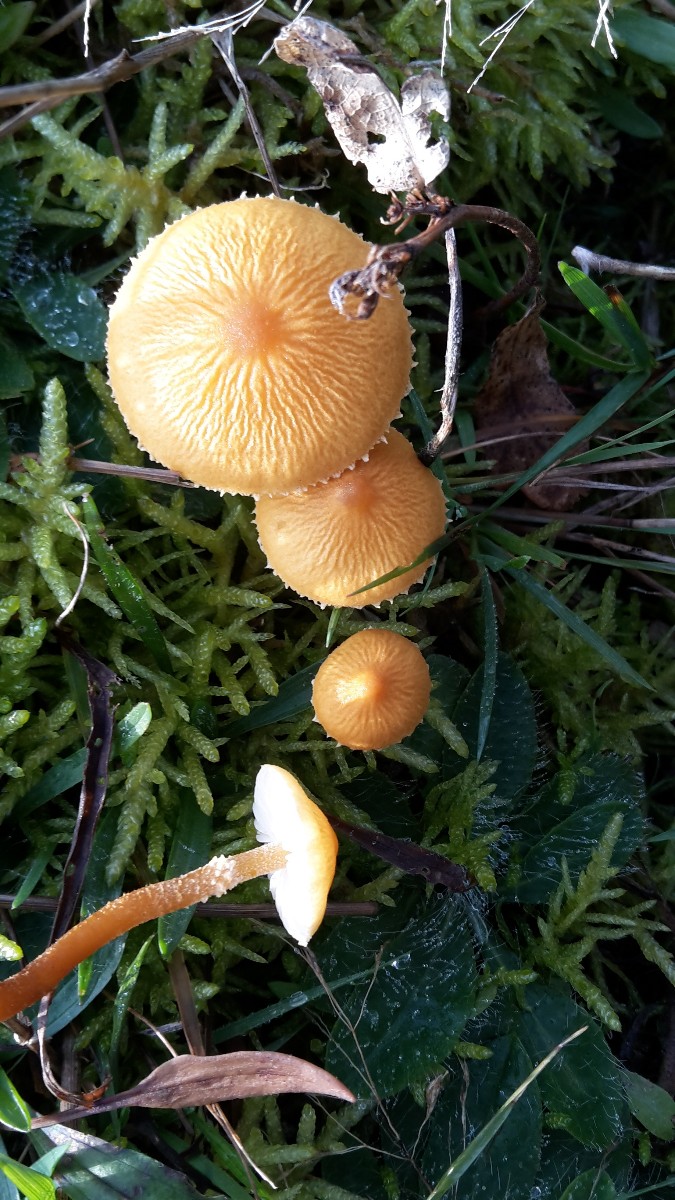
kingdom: Fungi
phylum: Basidiomycota
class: Agaricomycetes
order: Agaricales
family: Tricholomataceae
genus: Cystoderma
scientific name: Cystoderma amianthinum
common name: okkergul grynhat
